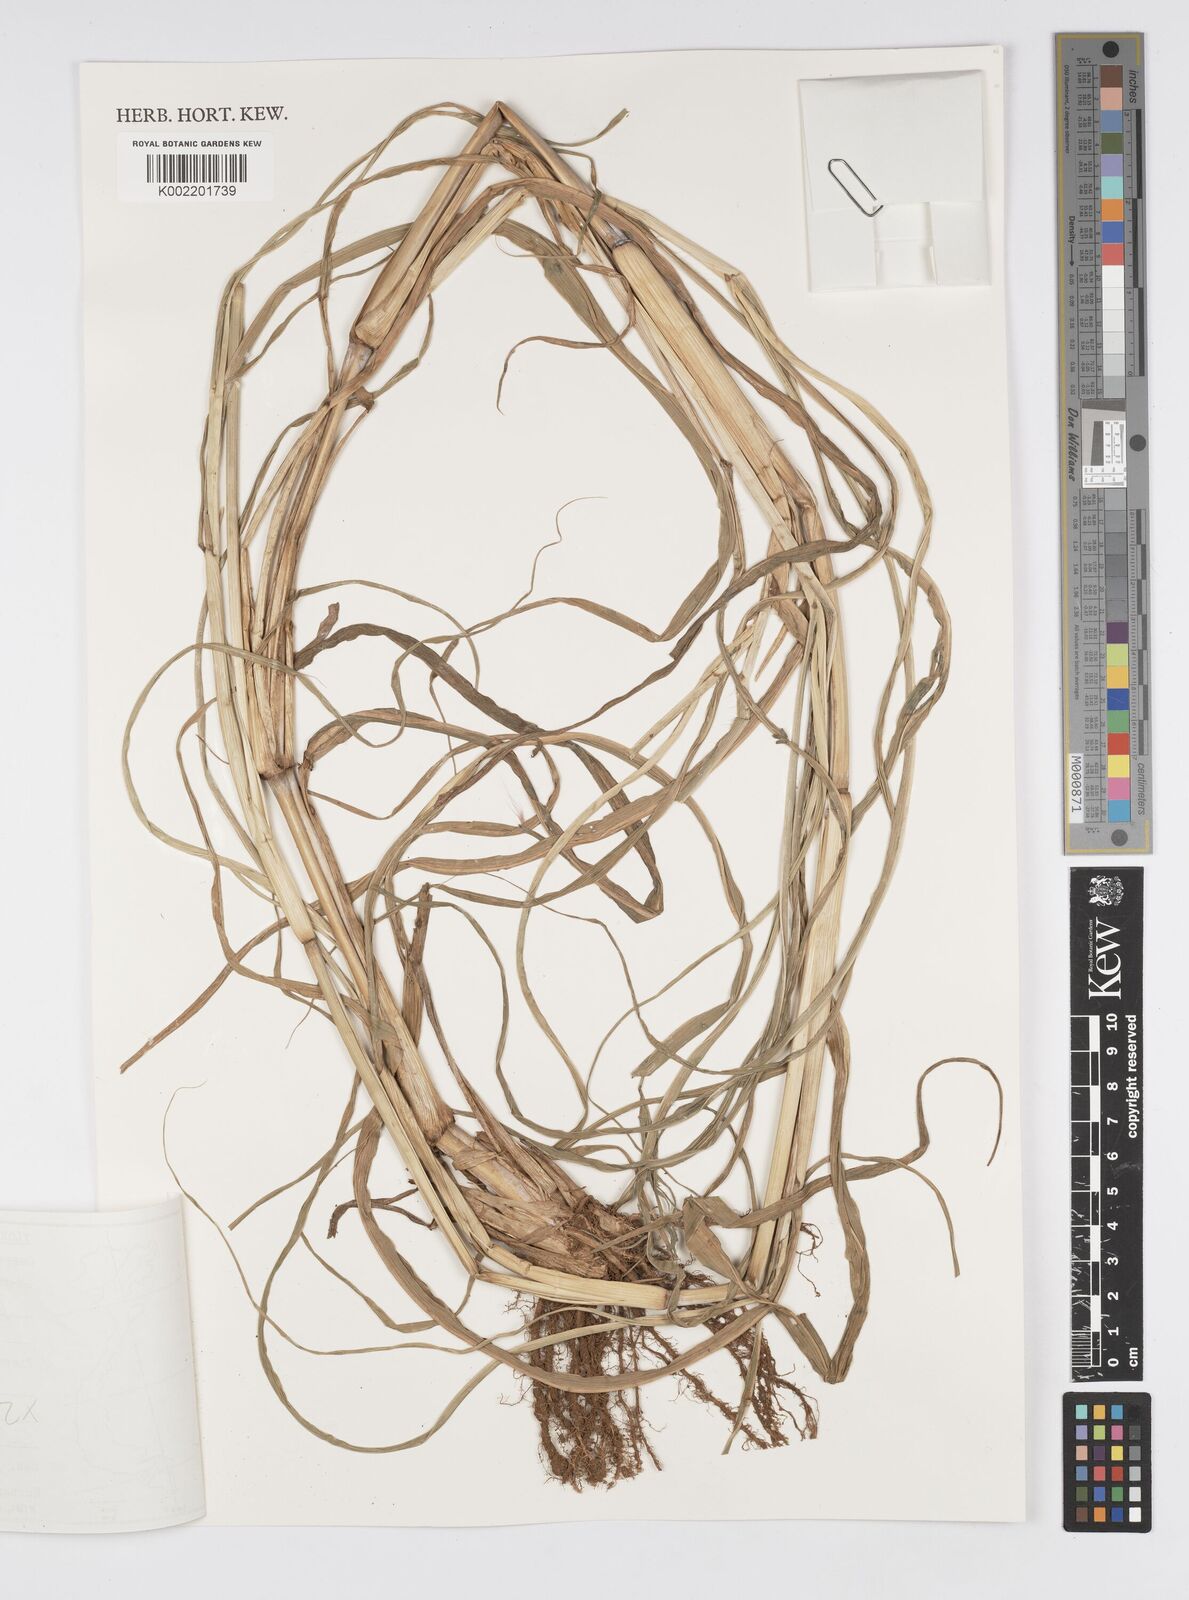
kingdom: Plantae
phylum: Tracheophyta
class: Liliopsida
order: Poales
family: Poaceae
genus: Cenchrus
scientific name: Cenchrus purpureus
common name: Elephant grass
